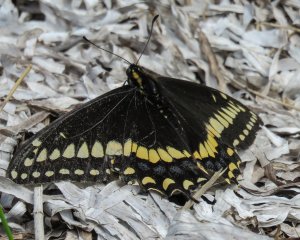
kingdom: Animalia
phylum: Arthropoda
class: Insecta
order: Lepidoptera
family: Papilionidae
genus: Papilio
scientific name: Papilio brevicauda
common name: Short-tailed Swallowtail
